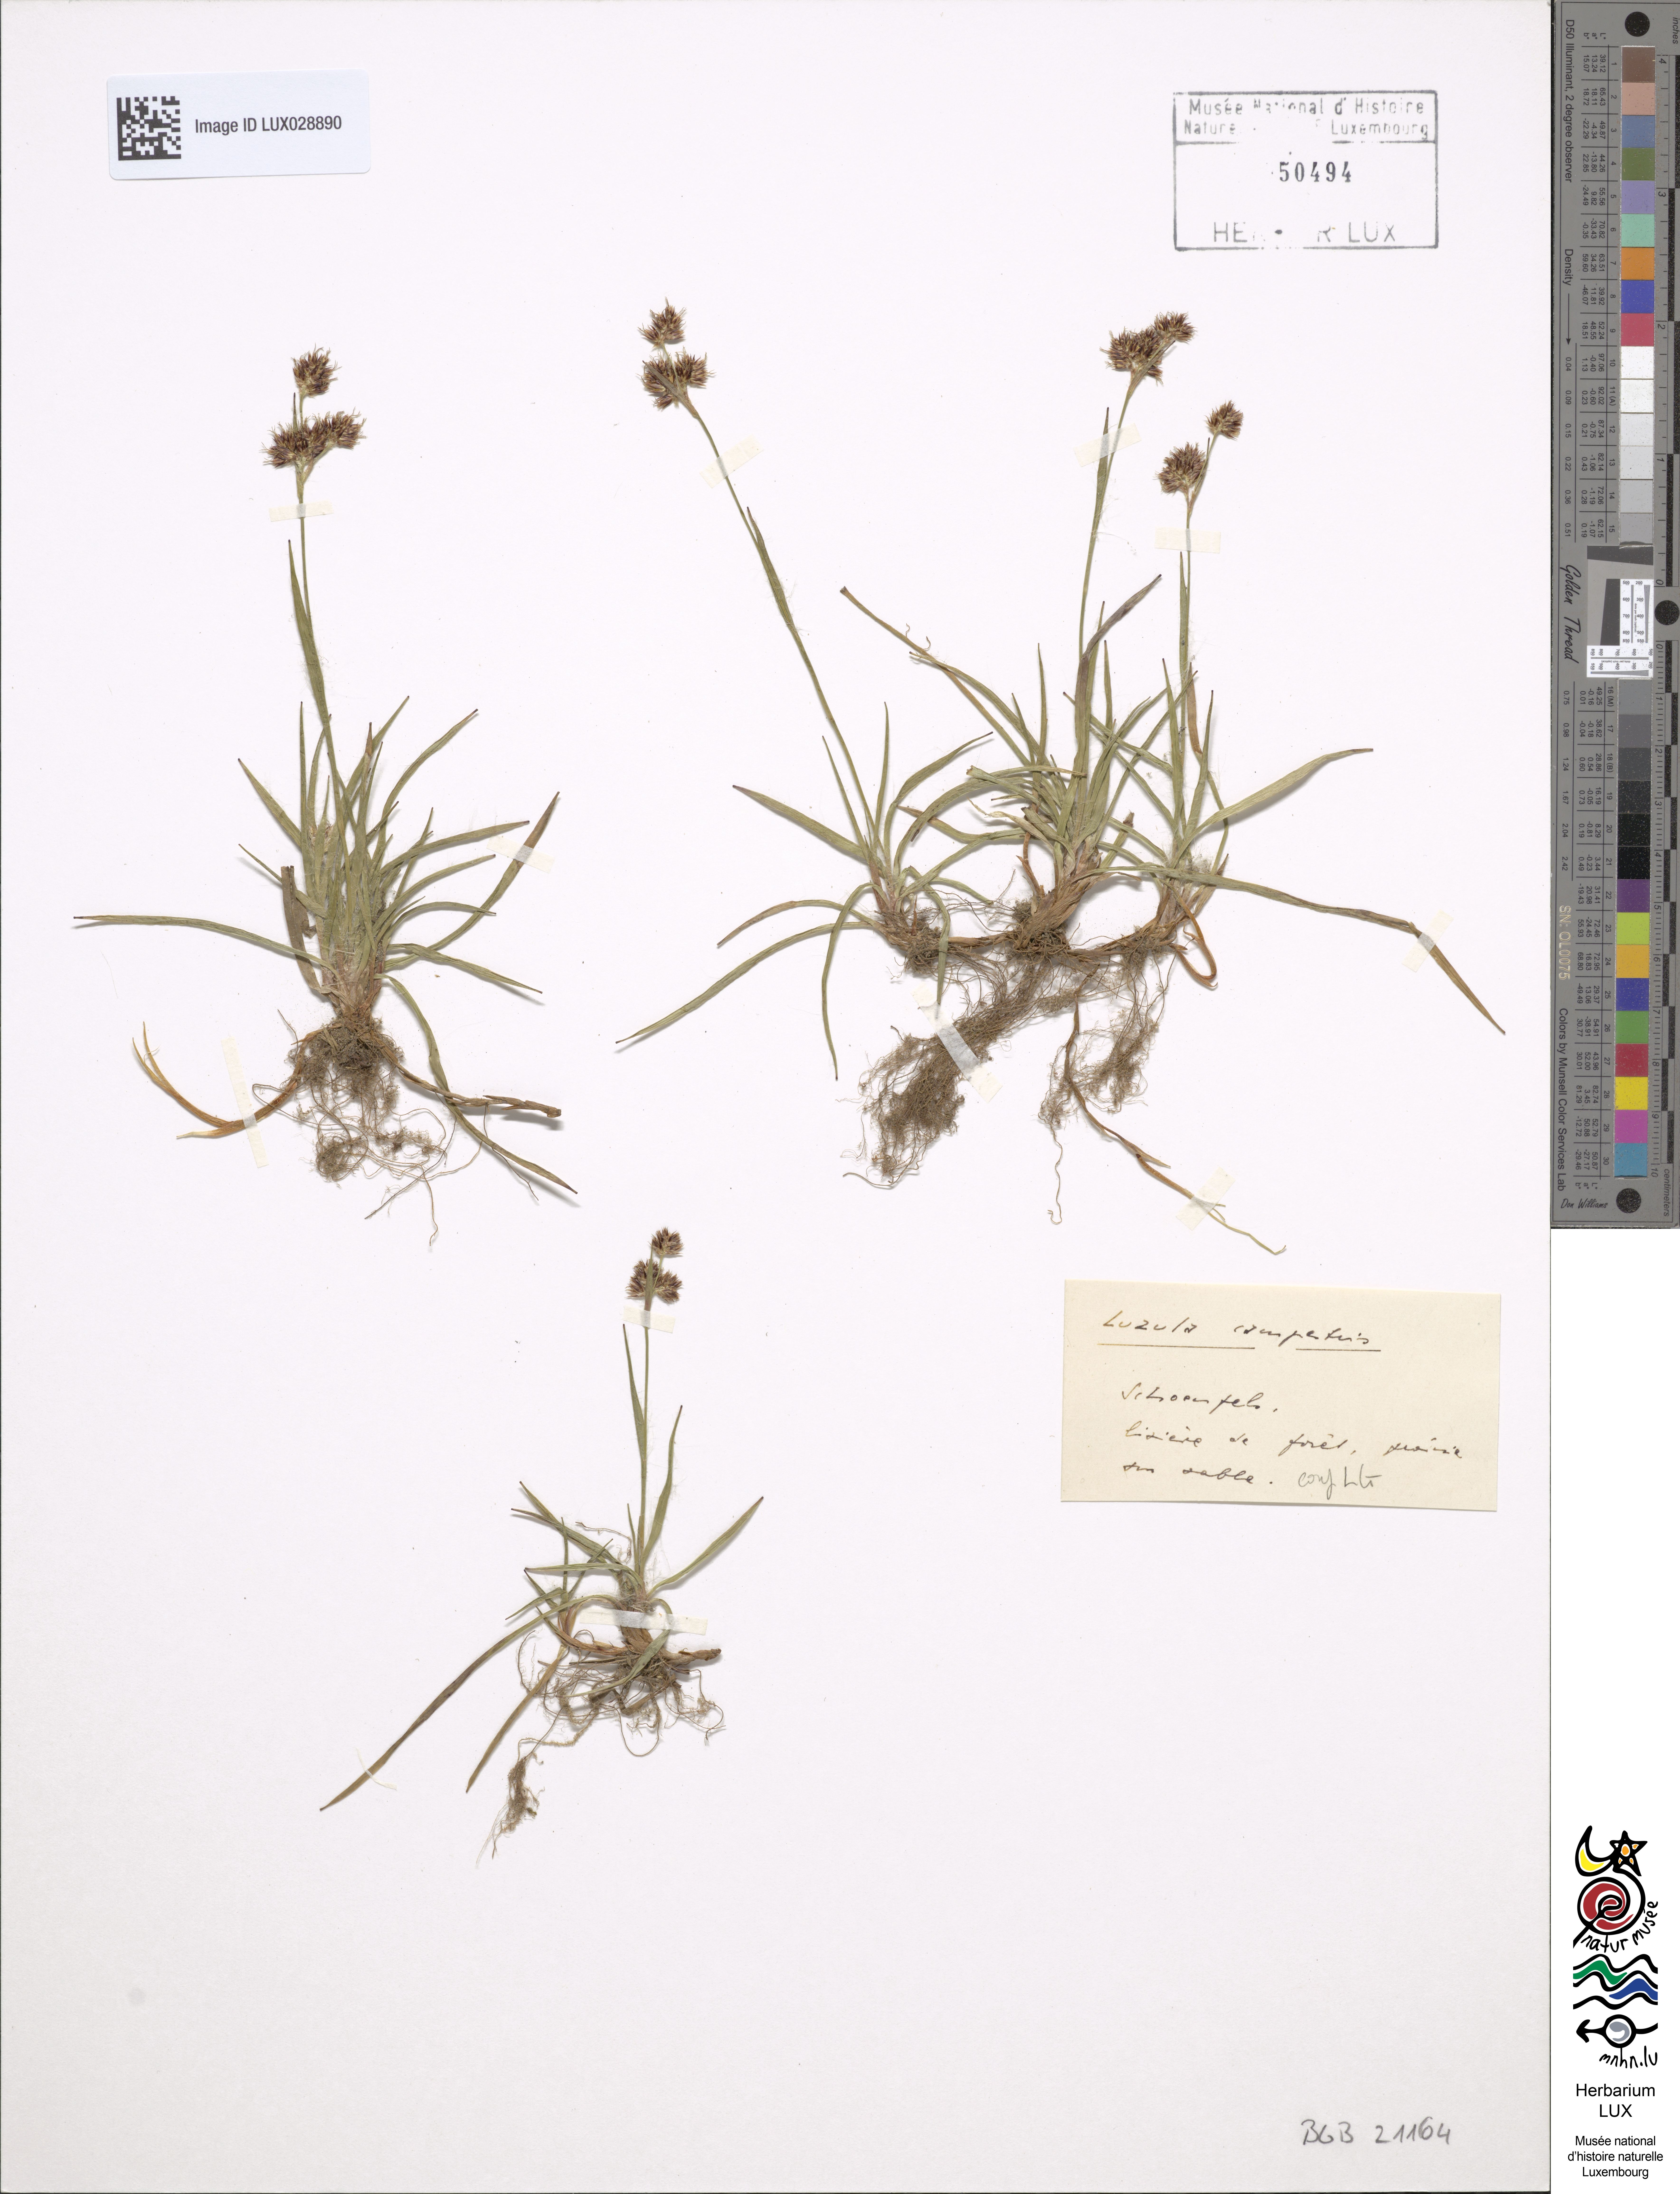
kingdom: Plantae
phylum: Tracheophyta
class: Liliopsida
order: Poales
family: Juncaceae
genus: Luzula
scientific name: Luzula campestris
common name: Field wood-rush
